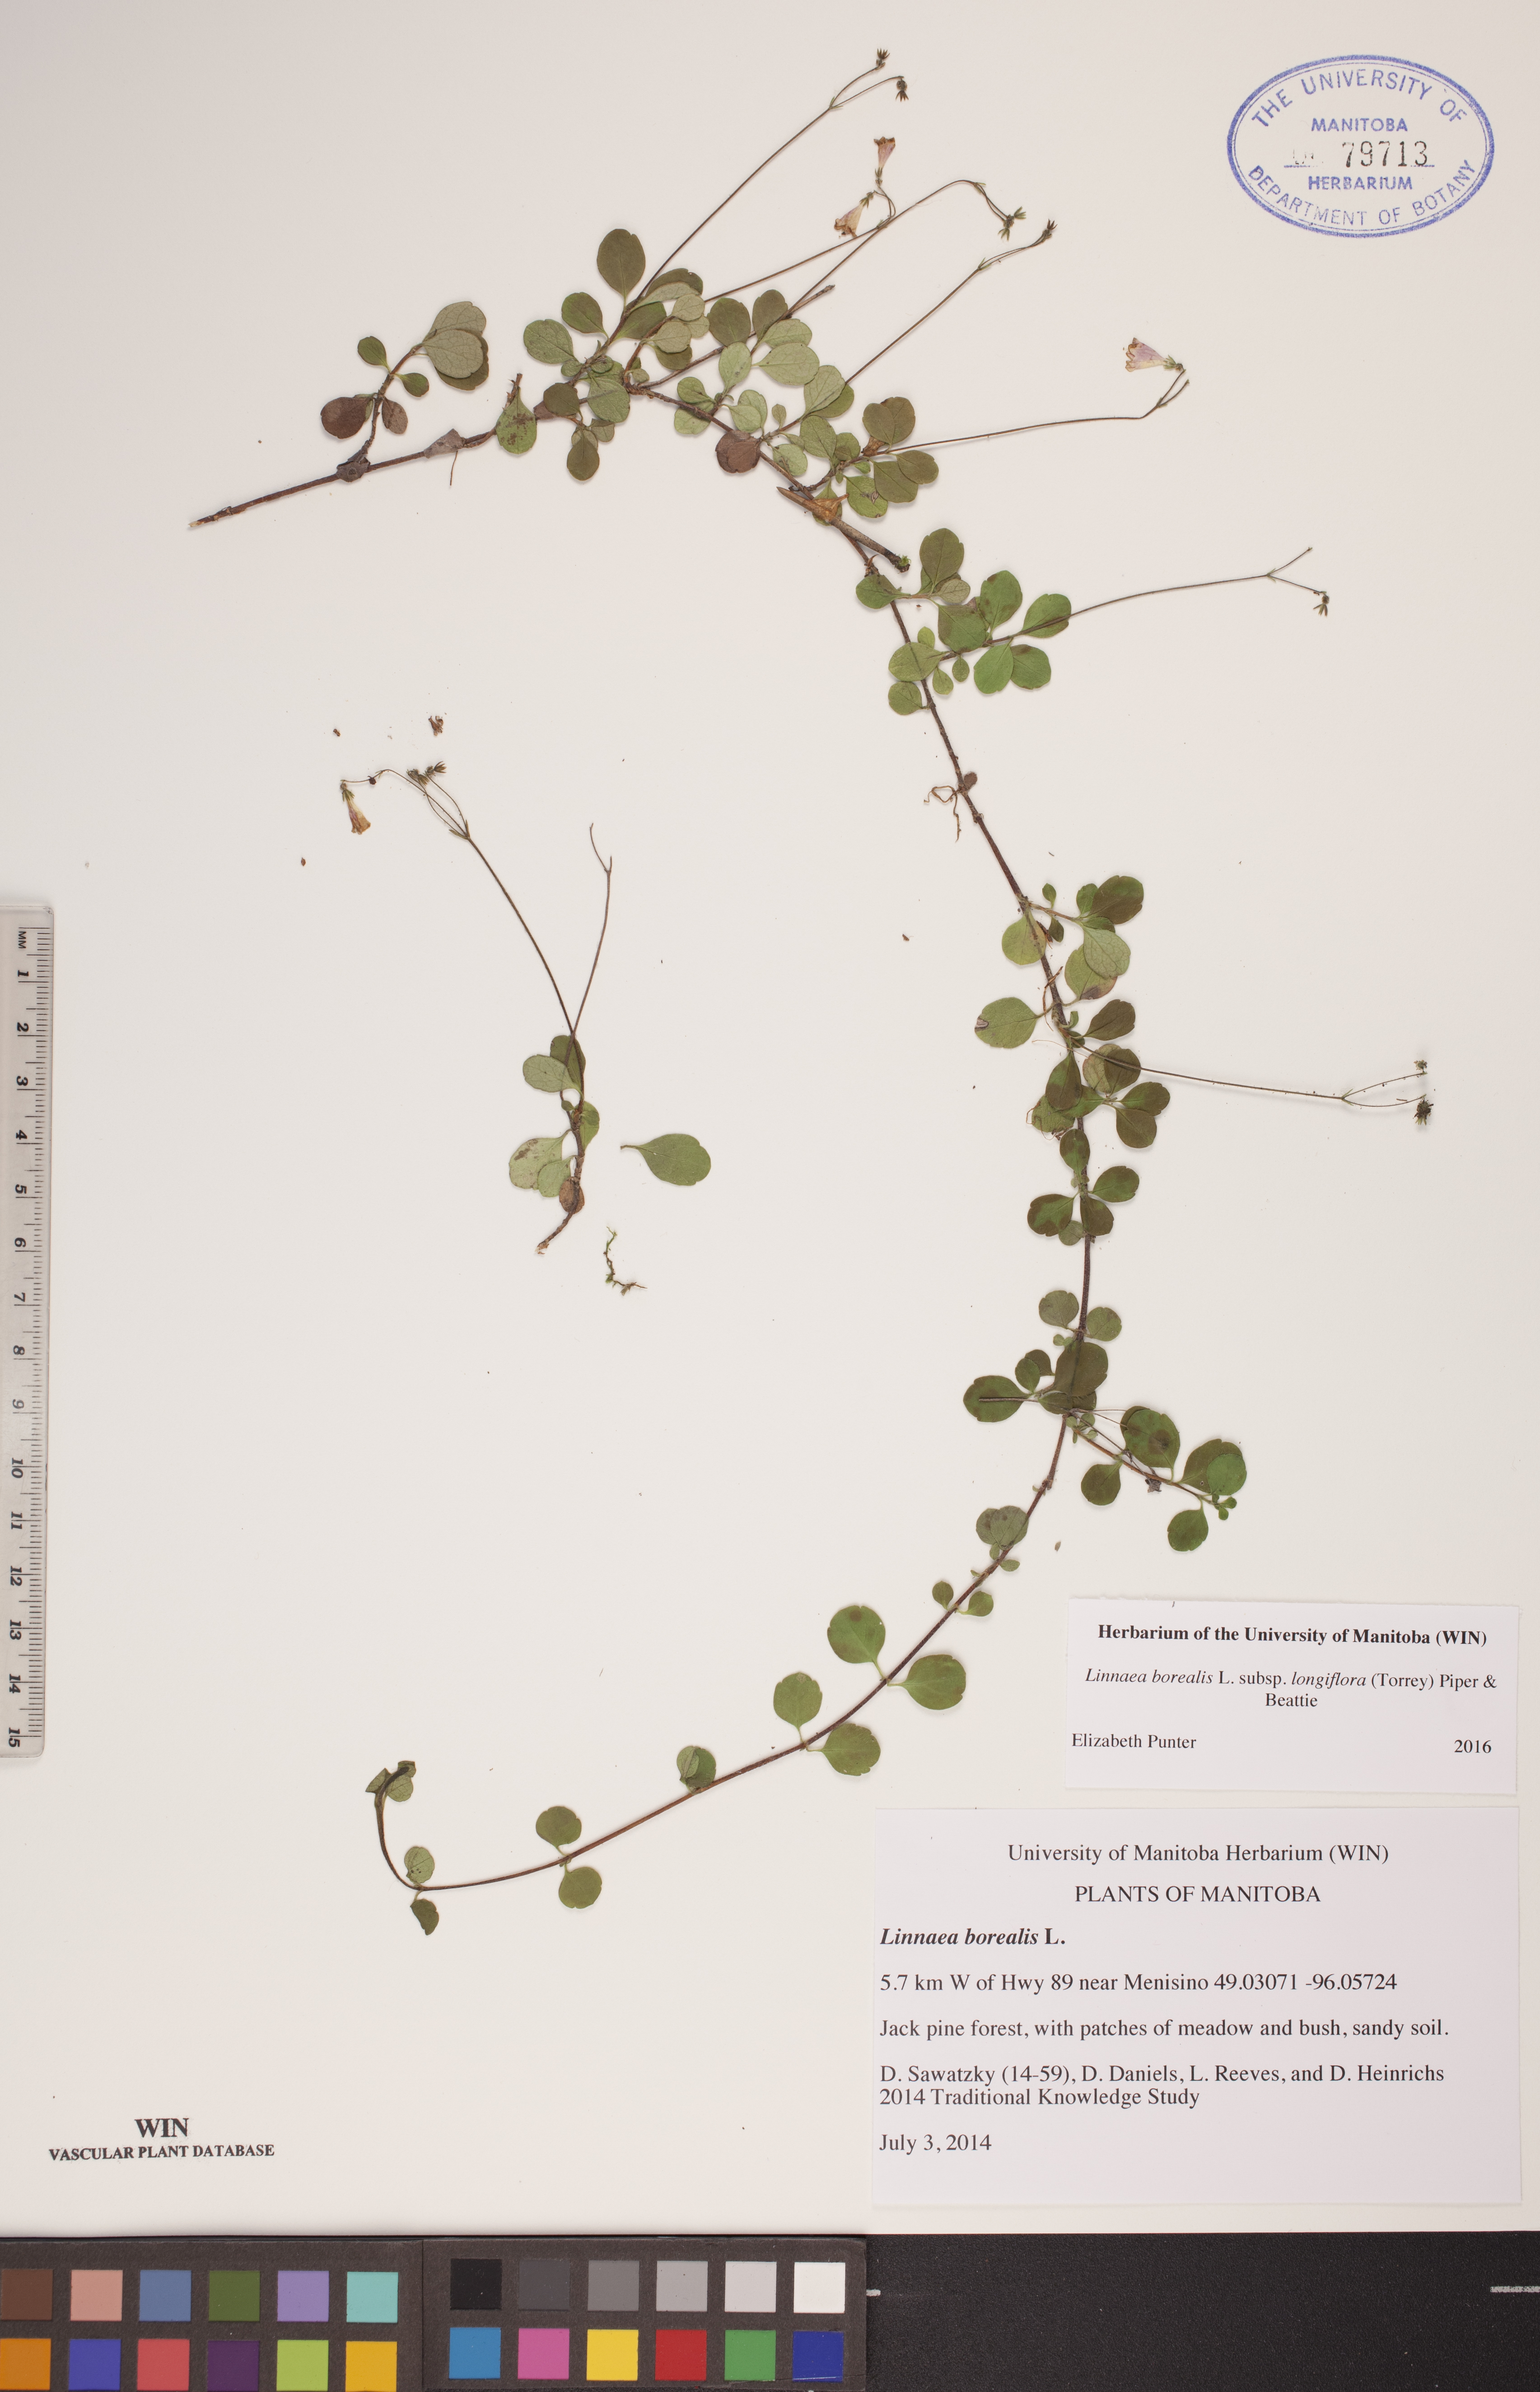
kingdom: Plantae
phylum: Tracheophyta
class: Magnoliopsida
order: Dipsacales
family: Caprifoliaceae
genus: Linnaea
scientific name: Linnaea borealis
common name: Twinflower
